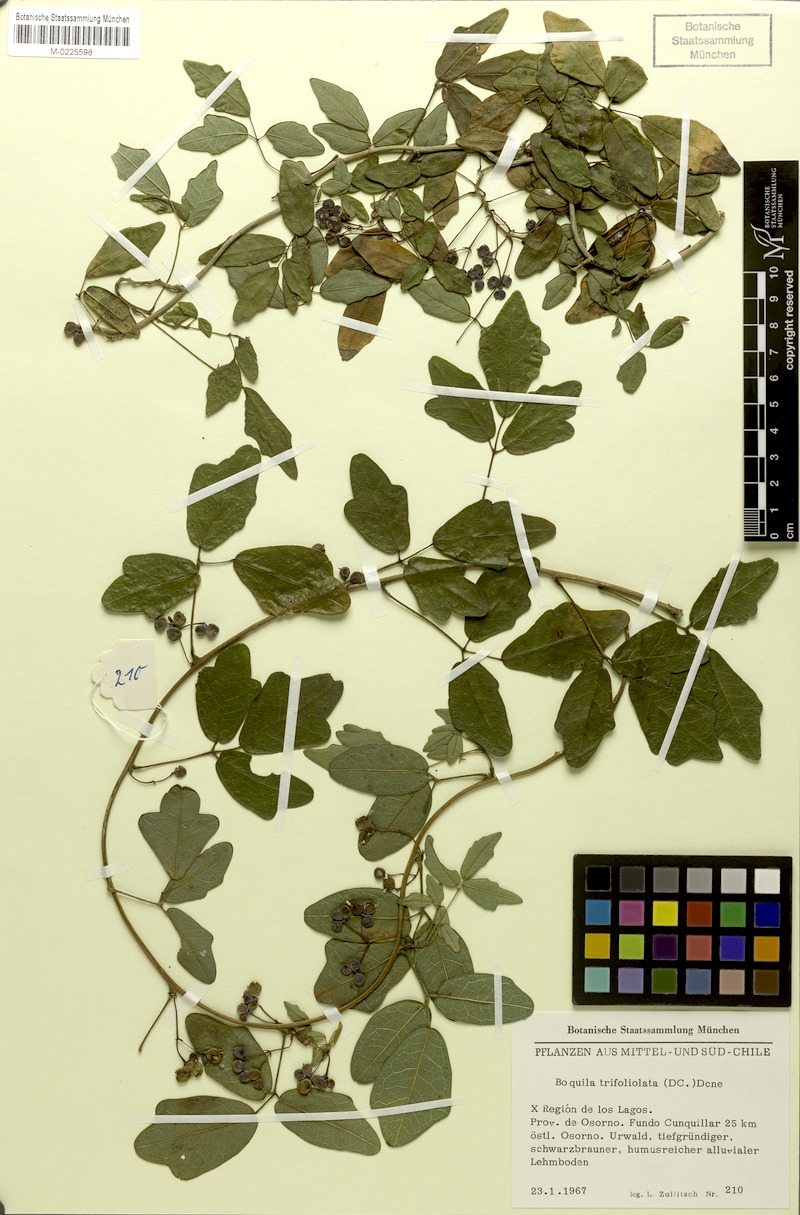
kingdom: Plantae
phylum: Tracheophyta
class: Magnoliopsida
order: Ranunculales
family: Lardizabalaceae
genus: Boquila
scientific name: Boquila trifoliolata
